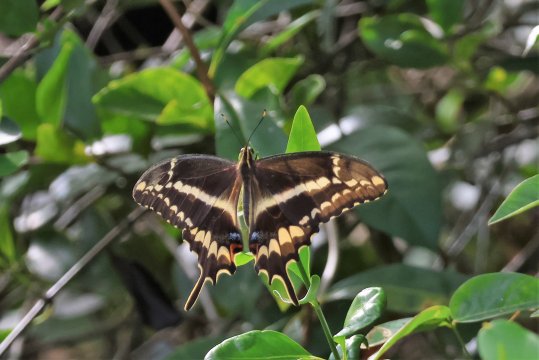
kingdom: Animalia
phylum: Arthropoda
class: Insecta
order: Lepidoptera
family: Papilionidae
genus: Heraclides
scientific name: Heraclides ponceana
